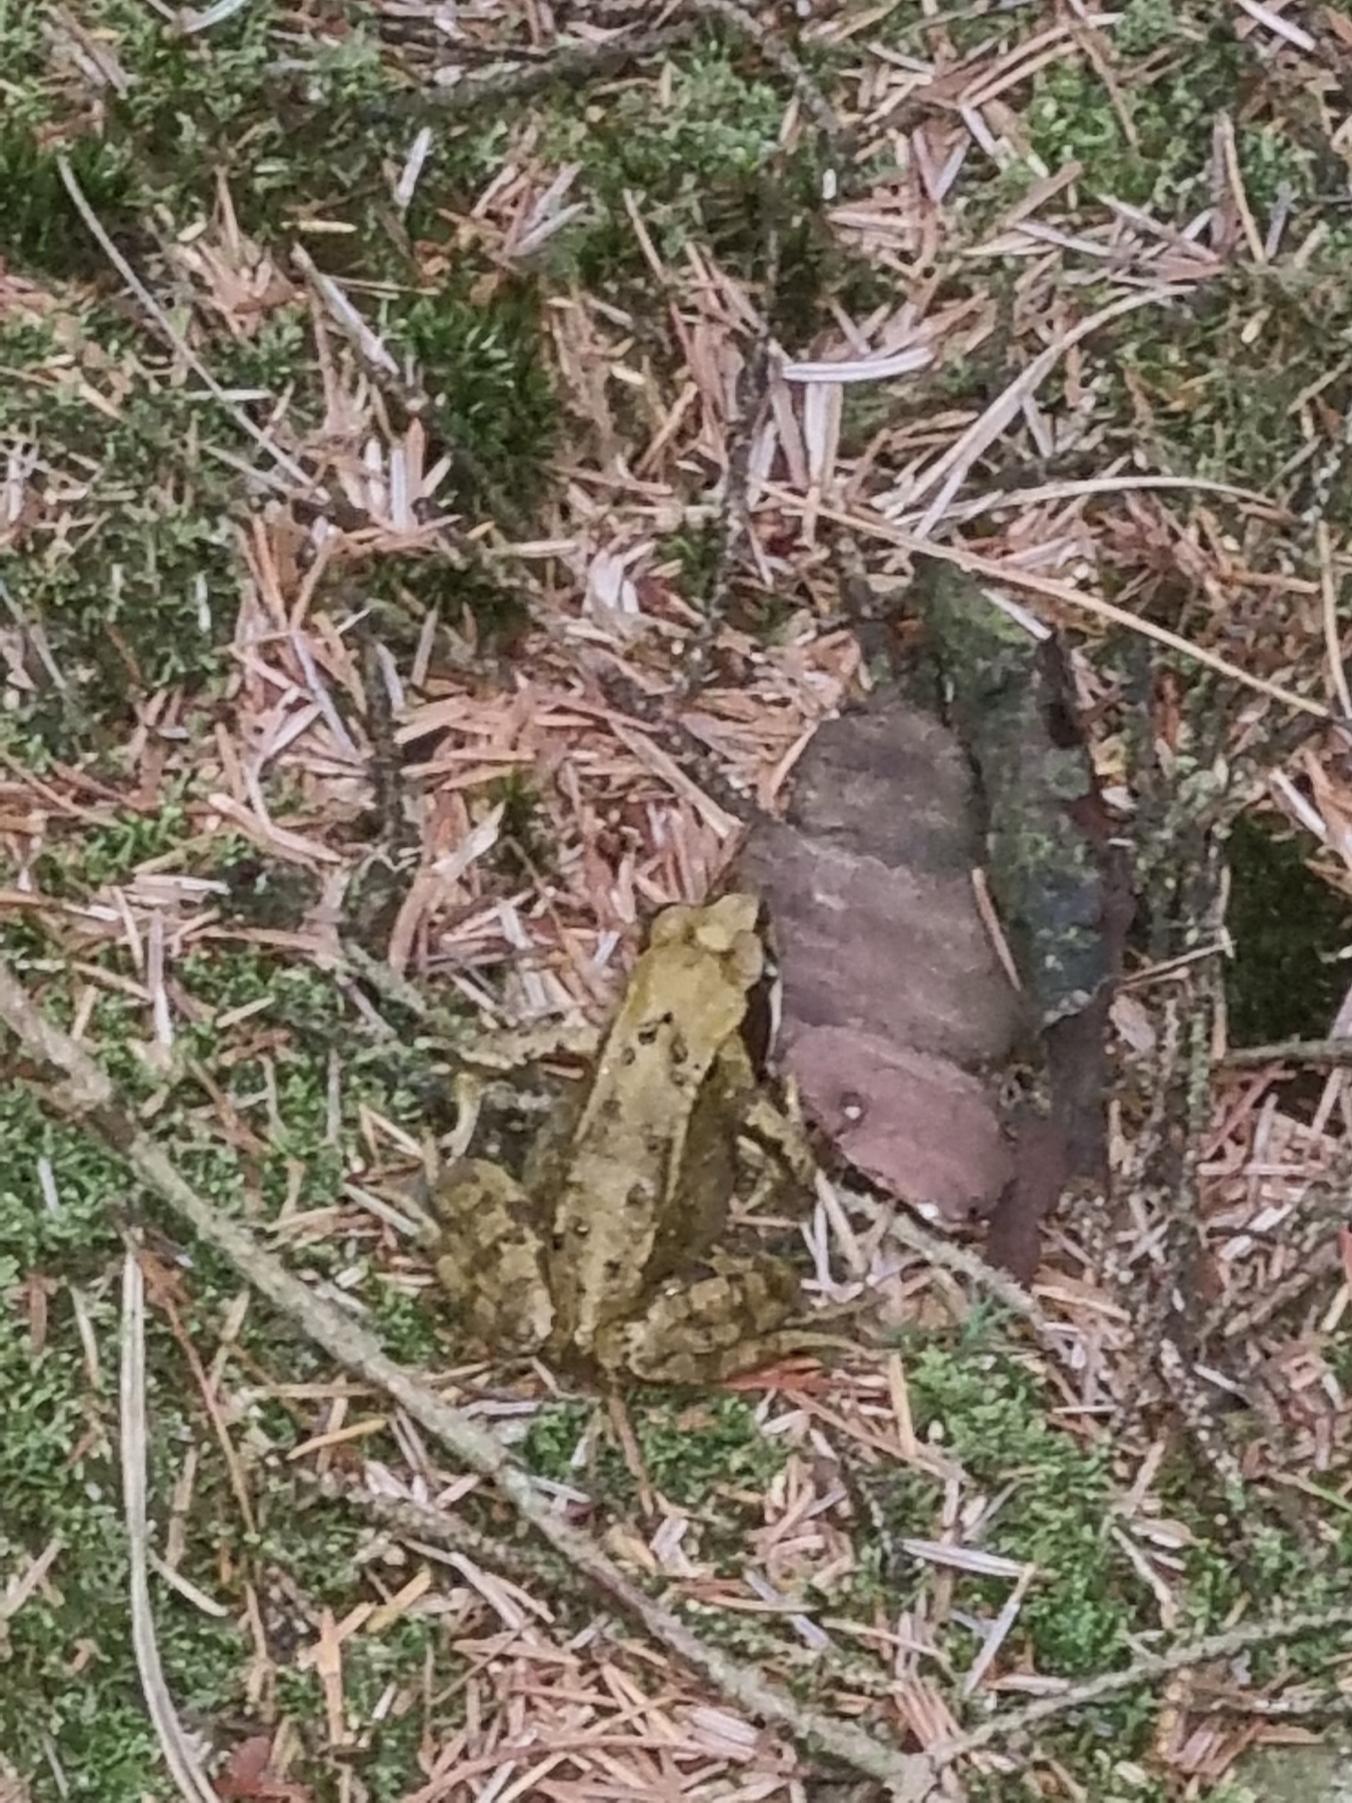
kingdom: Animalia
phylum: Chordata
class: Amphibia
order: Anura
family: Ranidae
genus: Rana
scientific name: Rana temporaria
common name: Butsnudet frø
